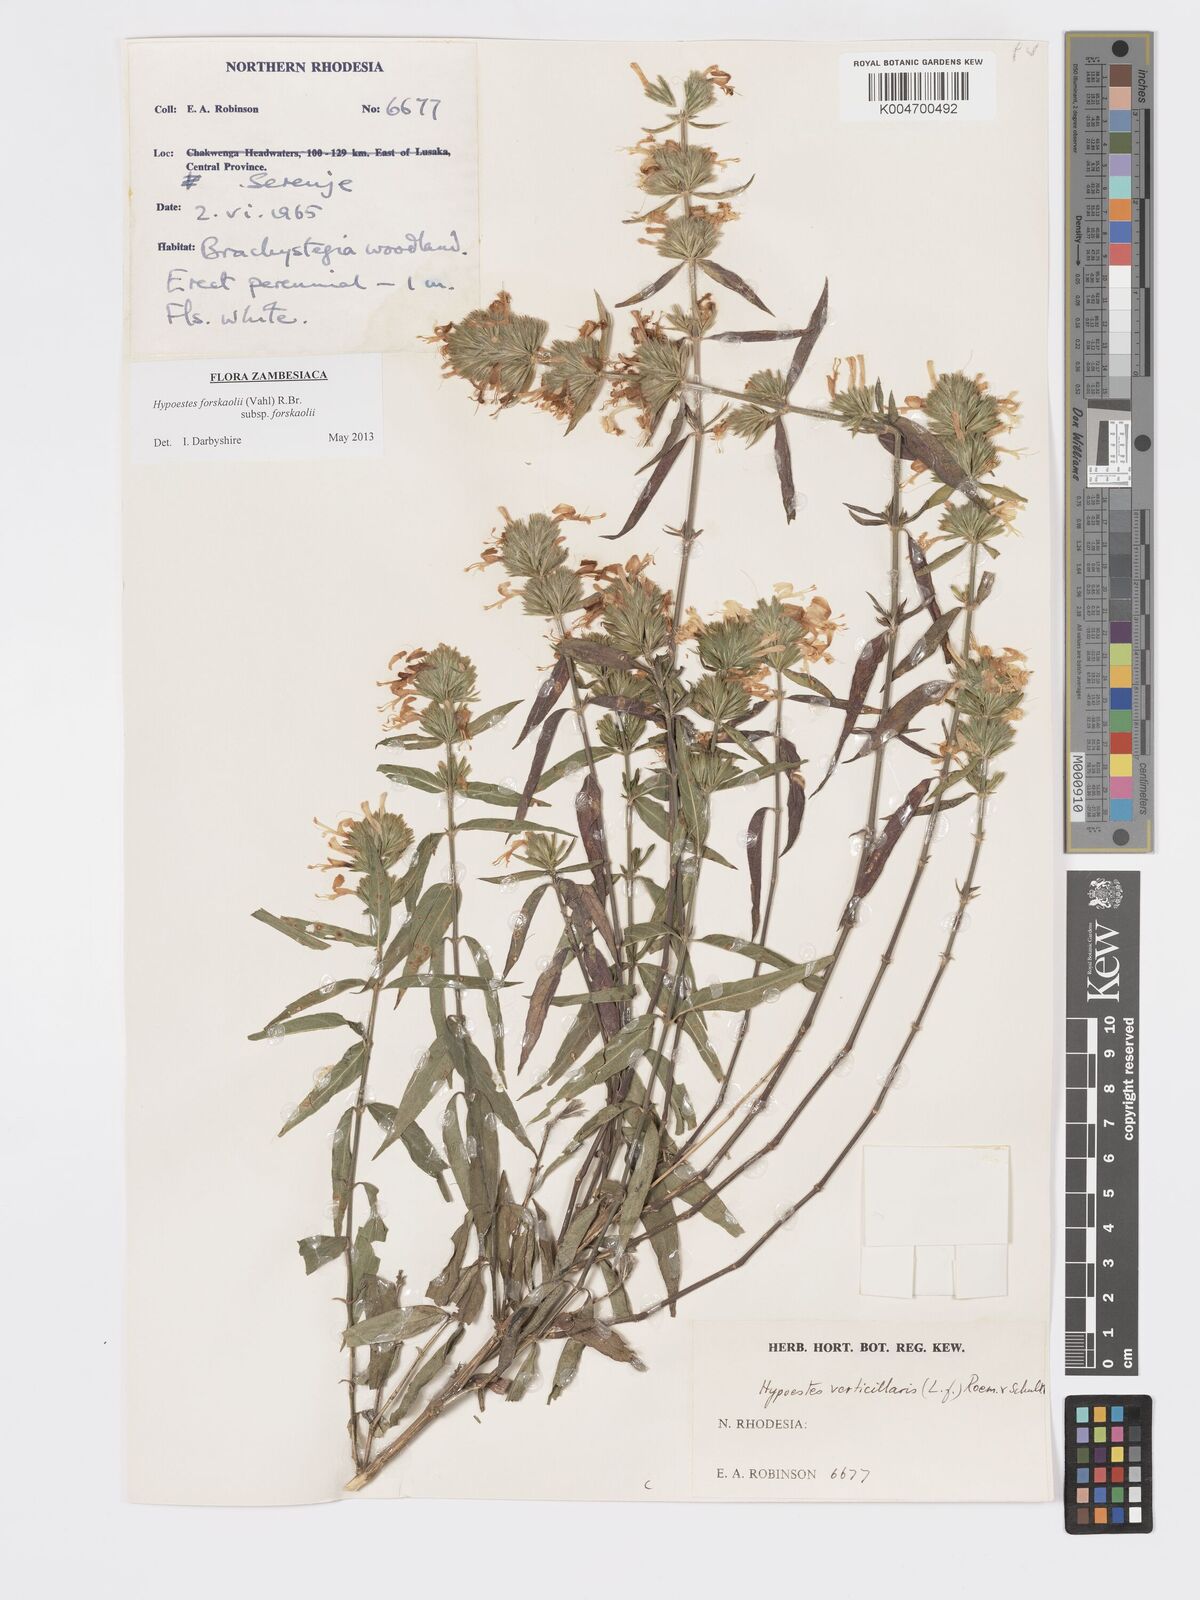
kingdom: Plantae
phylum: Tracheophyta
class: Magnoliopsida
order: Lamiales
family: Acanthaceae
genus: Hypoestes
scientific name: Hypoestes forskaolii
